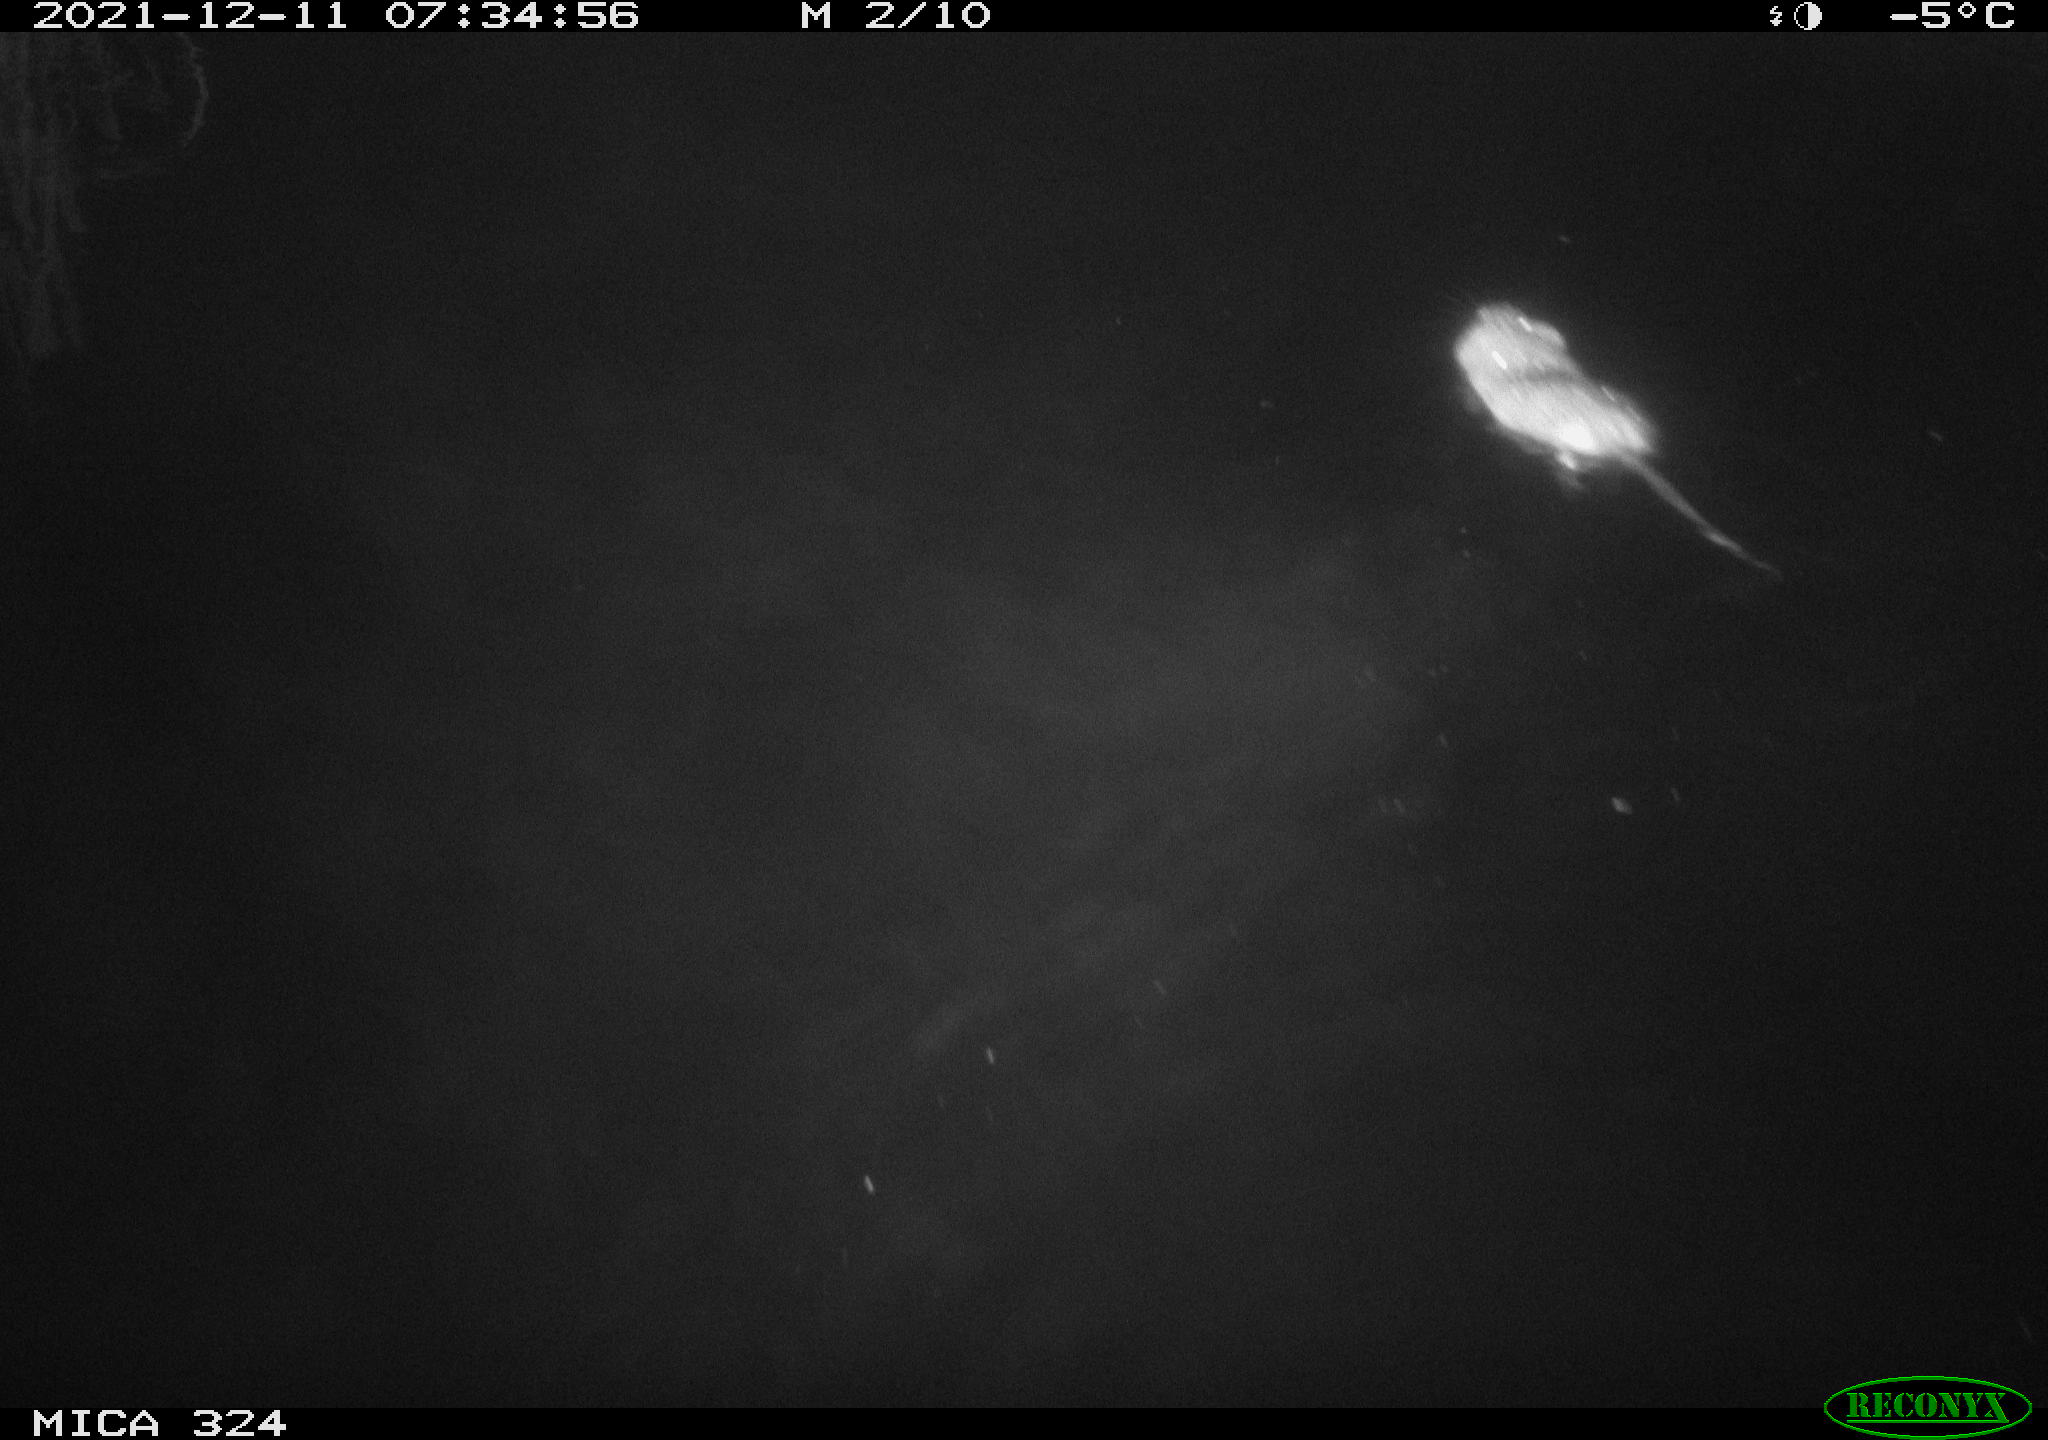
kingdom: Animalia
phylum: Chordata
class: Mammalia
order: Rodentia
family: Cricetidae
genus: Ondatra
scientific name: Ondatra zibethicus
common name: Muskrat
